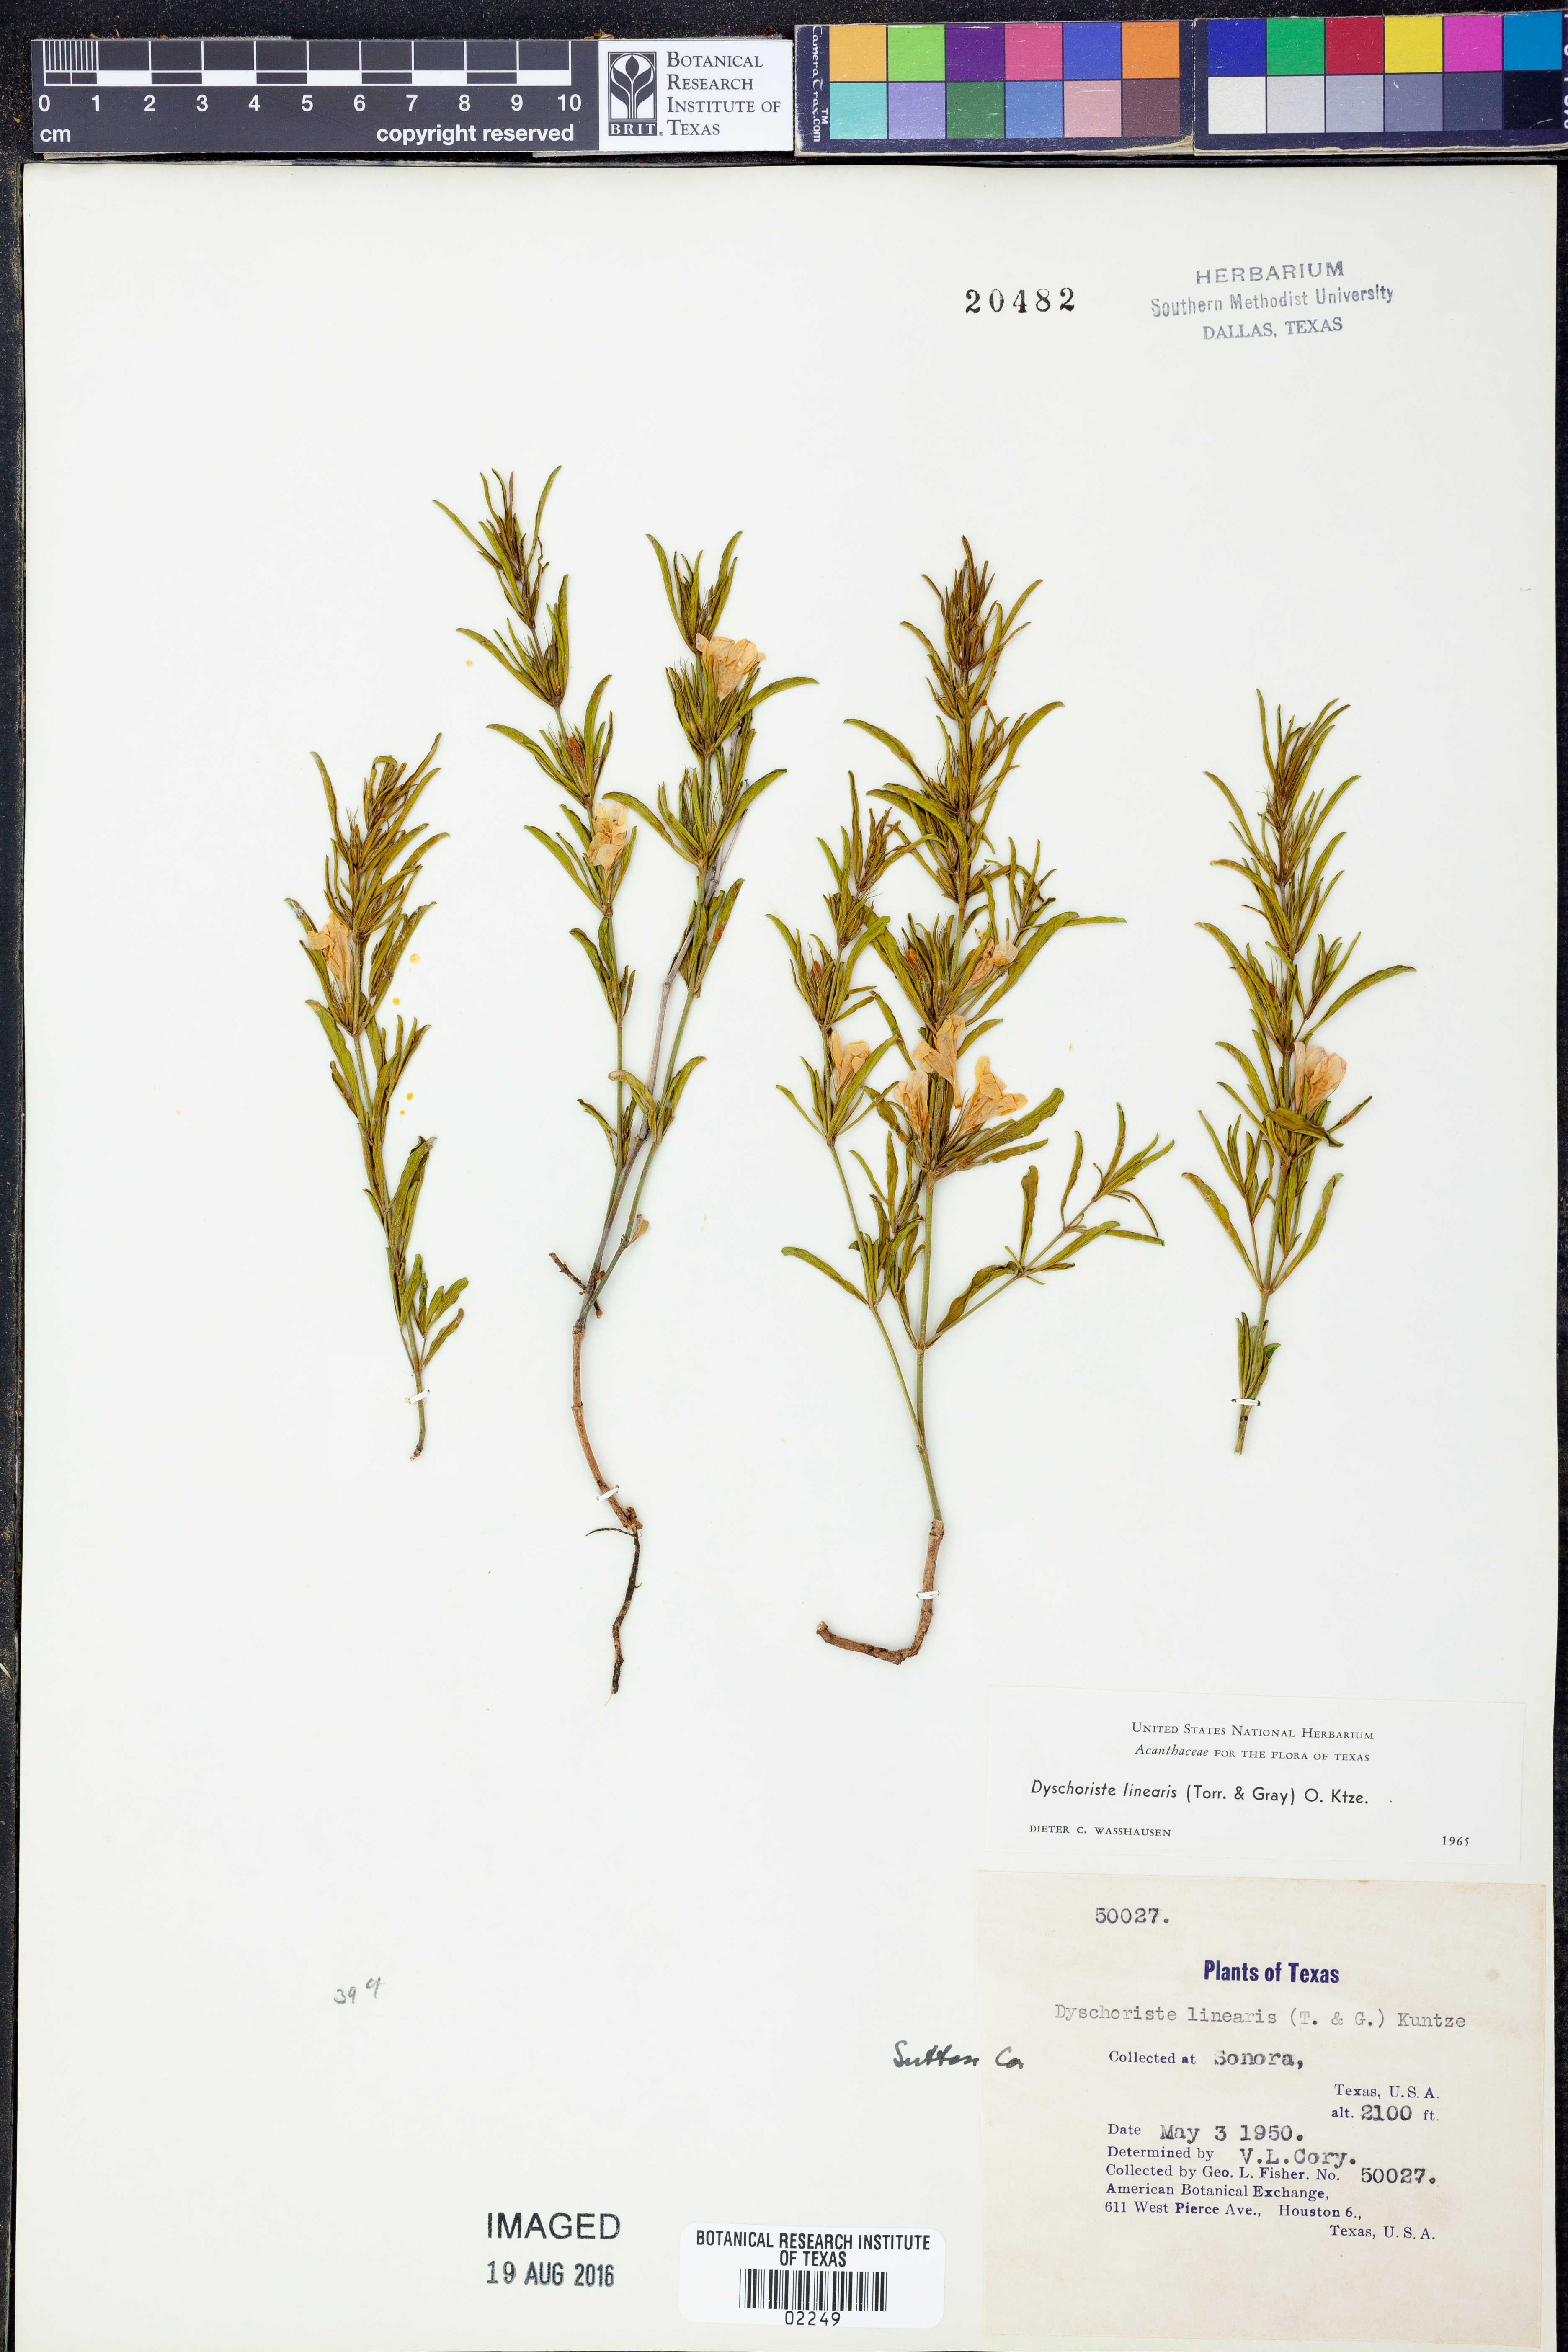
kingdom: Plantae
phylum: Tracheophyta
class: Magnoliopsida
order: Lamiales
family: Acanthaceae
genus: Dyschoriste
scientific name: Dyschoriste linearis
